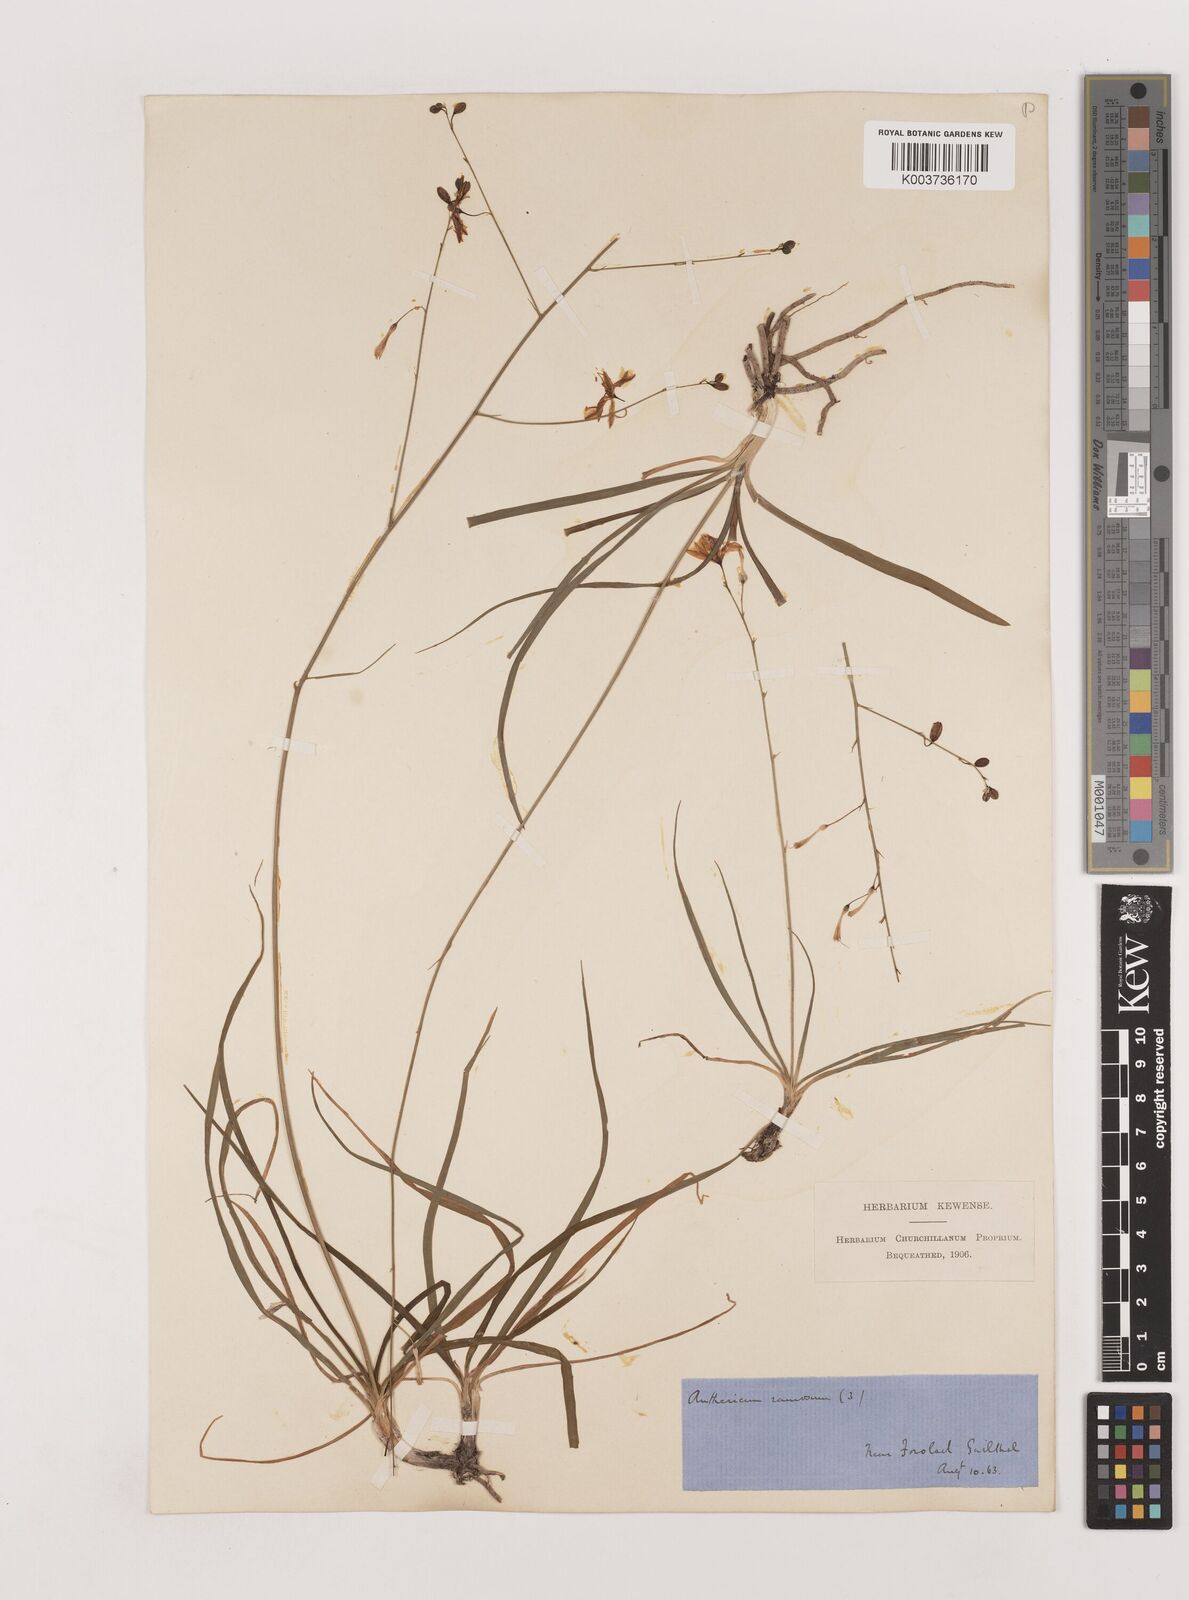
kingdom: Plantae
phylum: Tracheophyta
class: Liliopsida
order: Asparagales
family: Asparagaceae
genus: Anthericum
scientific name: Anthericum ramosum
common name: Branched st. bernard's-lily
